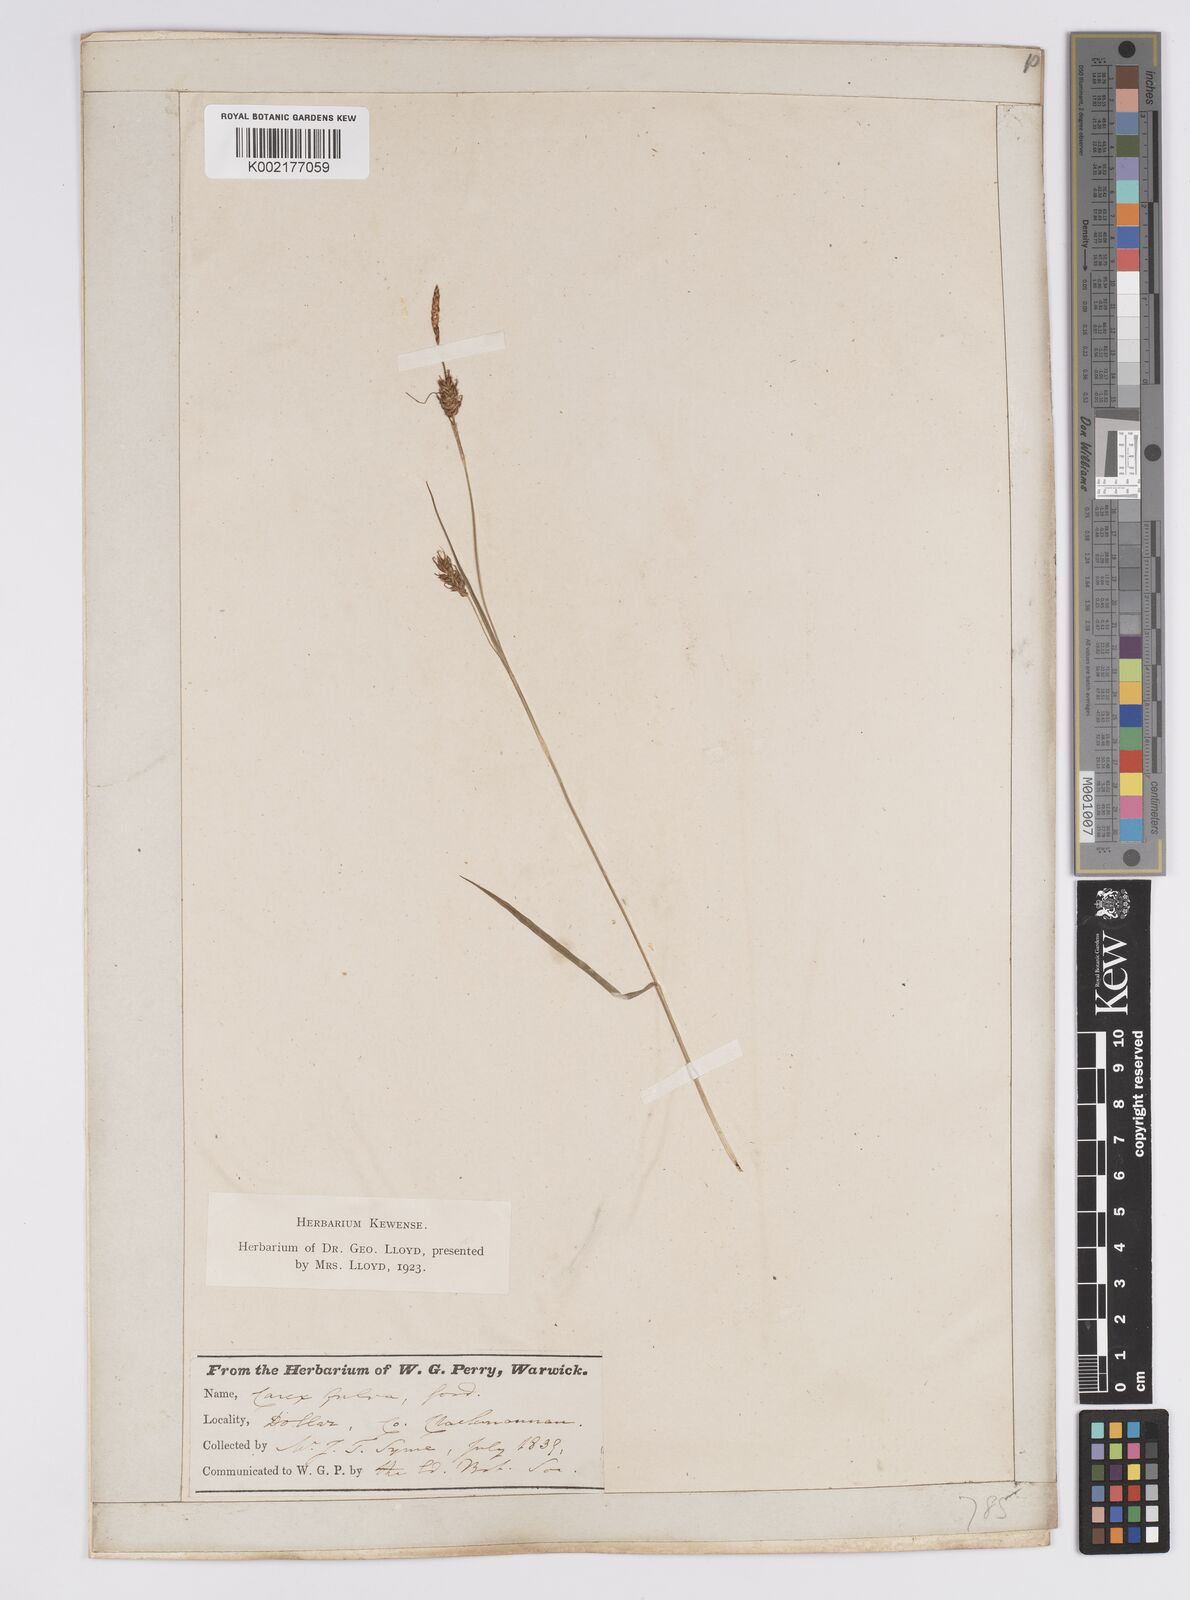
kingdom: Plantae
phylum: Tracheophyta
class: Liliopsida
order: Poales
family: Cyperaceae
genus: Carex
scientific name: Carex hostiana
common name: Tawny sedge
